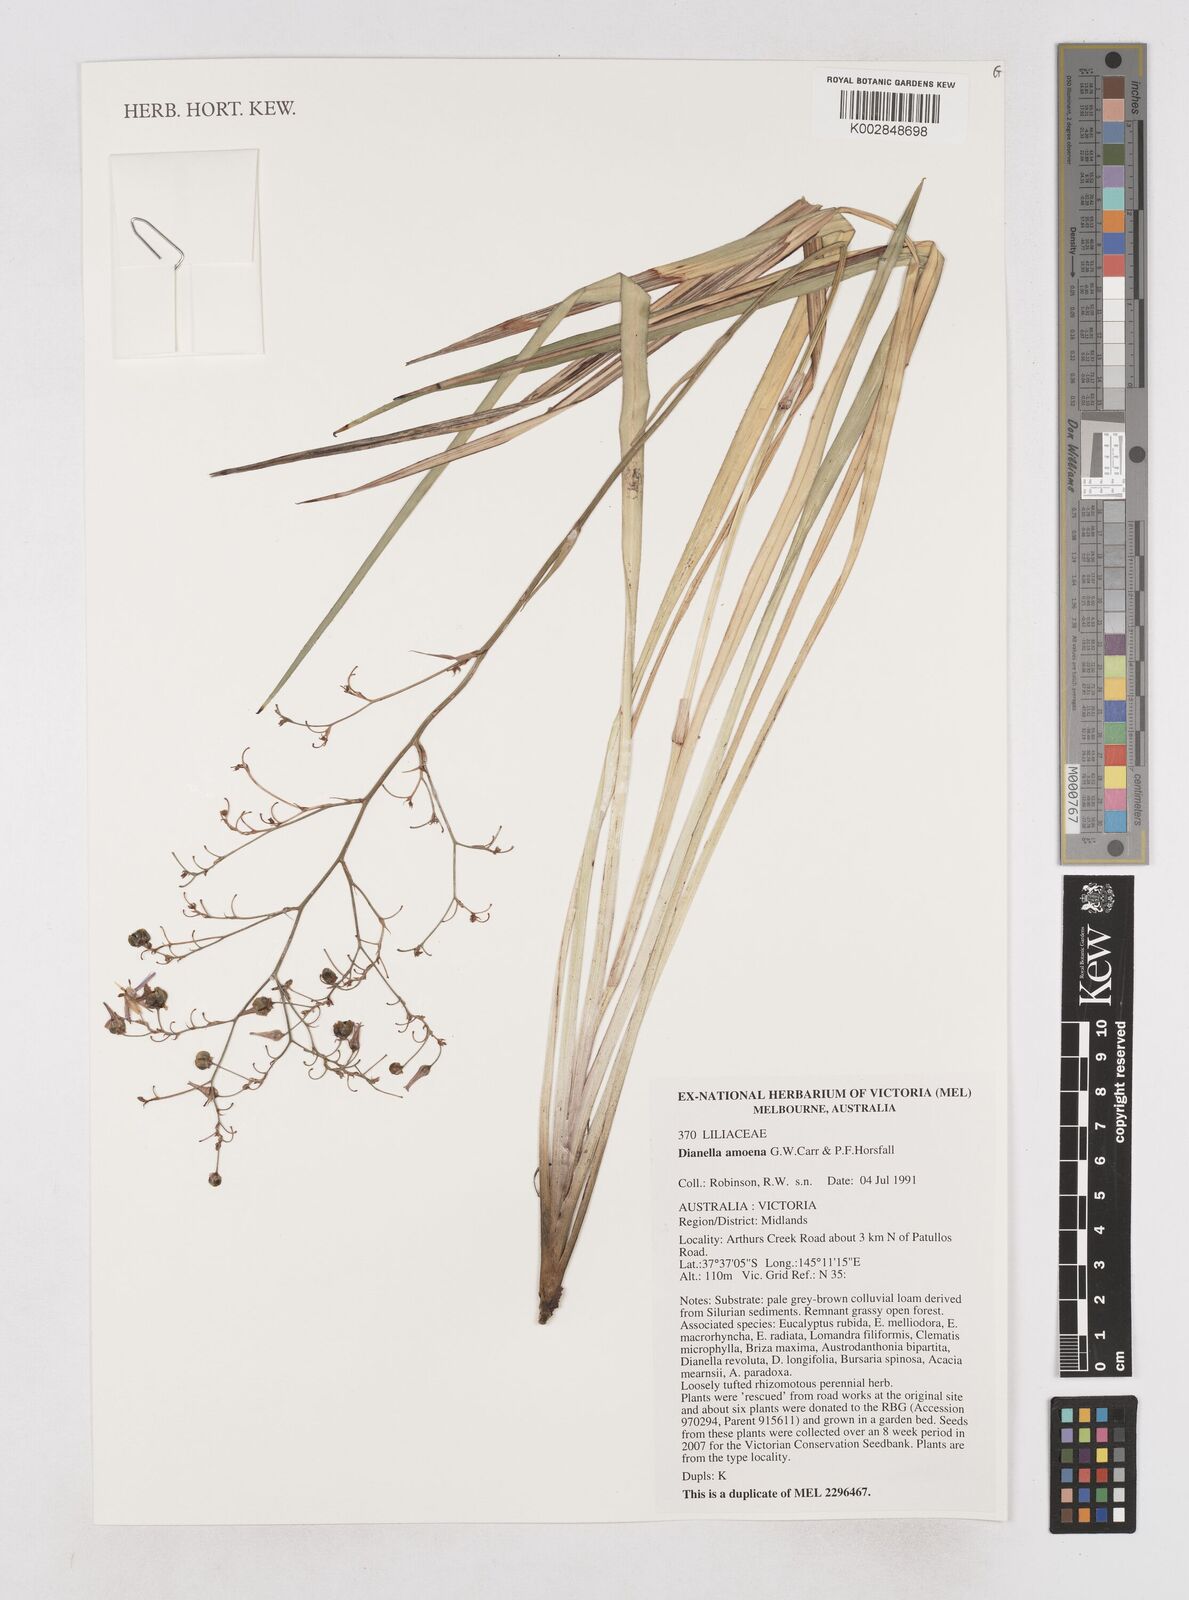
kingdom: Plantae
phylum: Tracheophyta
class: Liliopsida
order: Asparagales
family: Asphodelaceae
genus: Dianella
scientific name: Dianella amoena
